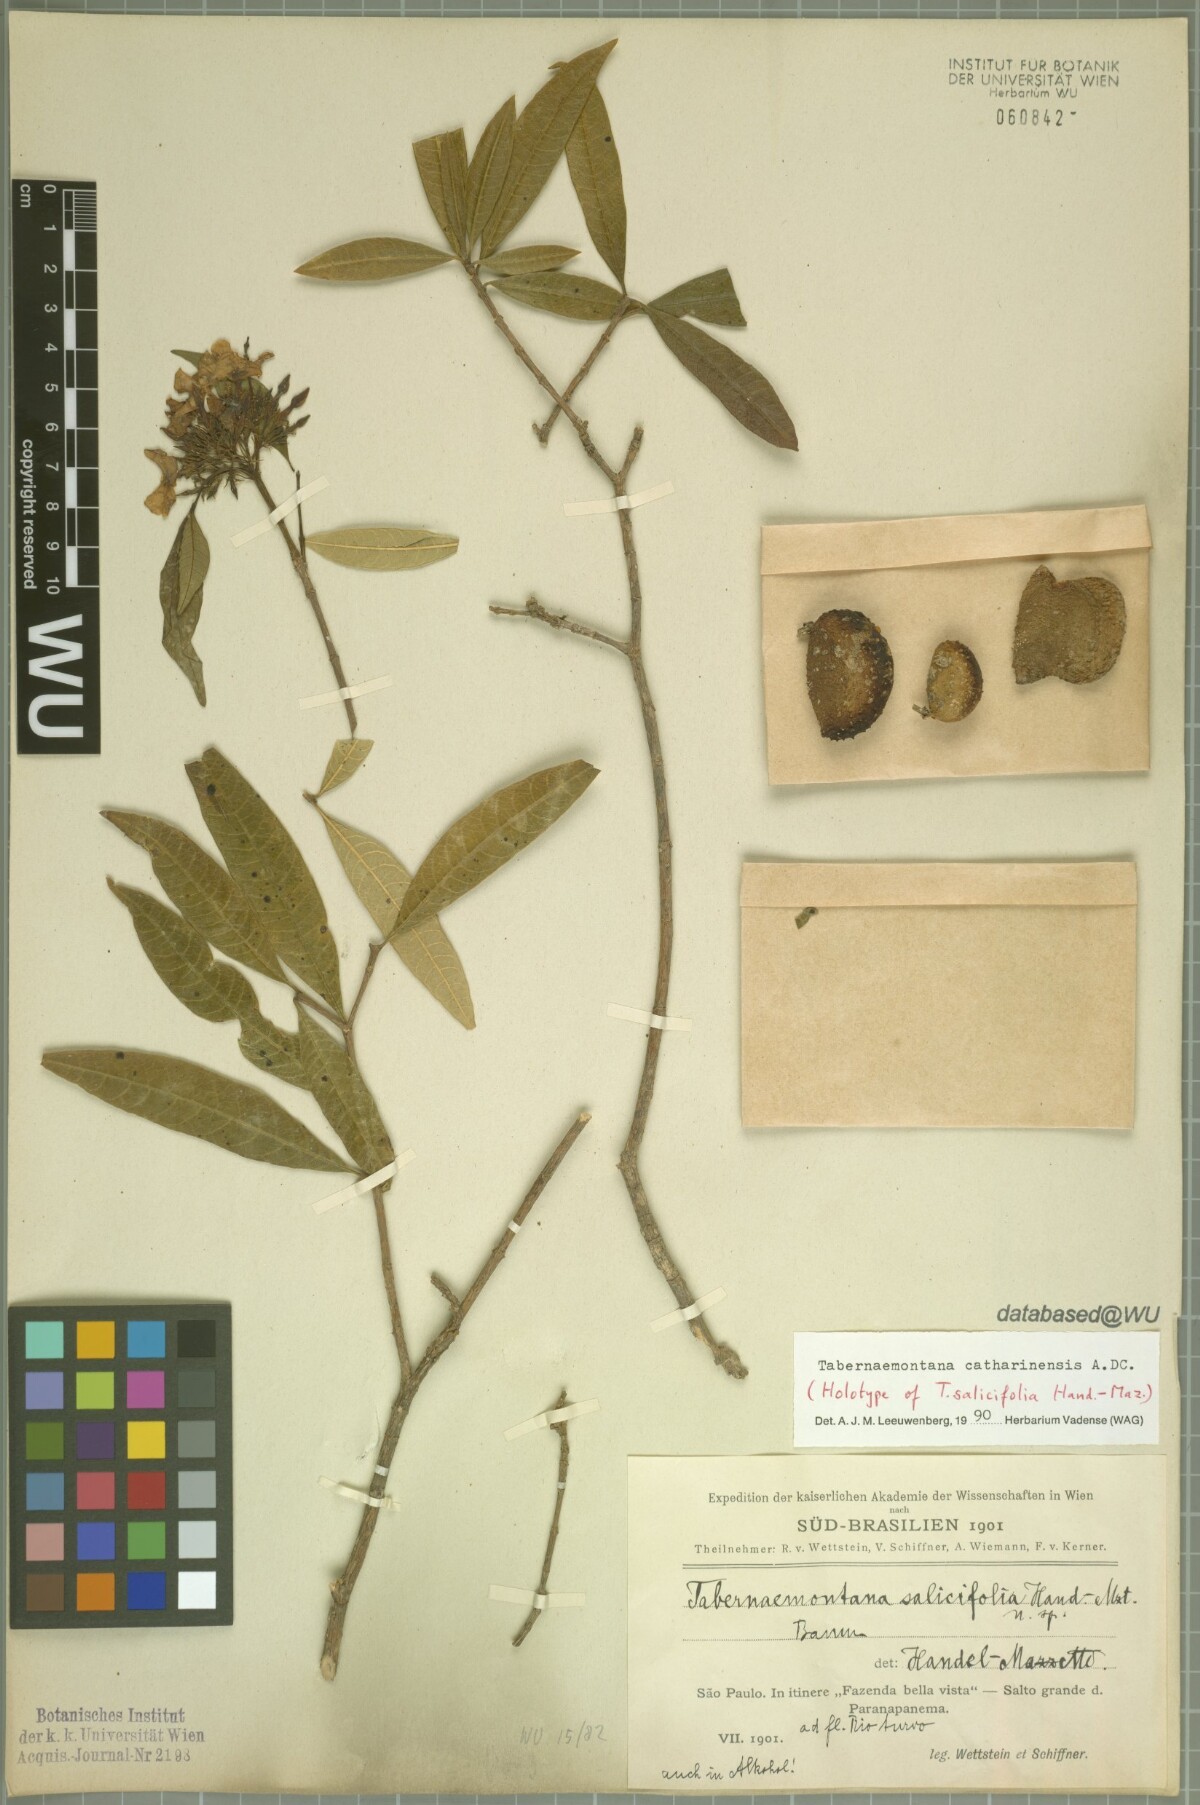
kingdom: Plantae
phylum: Tracheophyta
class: Magnoliopsida
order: Gentianales
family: Apocynaceae
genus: Tabernaemontana
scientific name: Tabernaemontana catharinensis
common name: Pinwheel-flower
